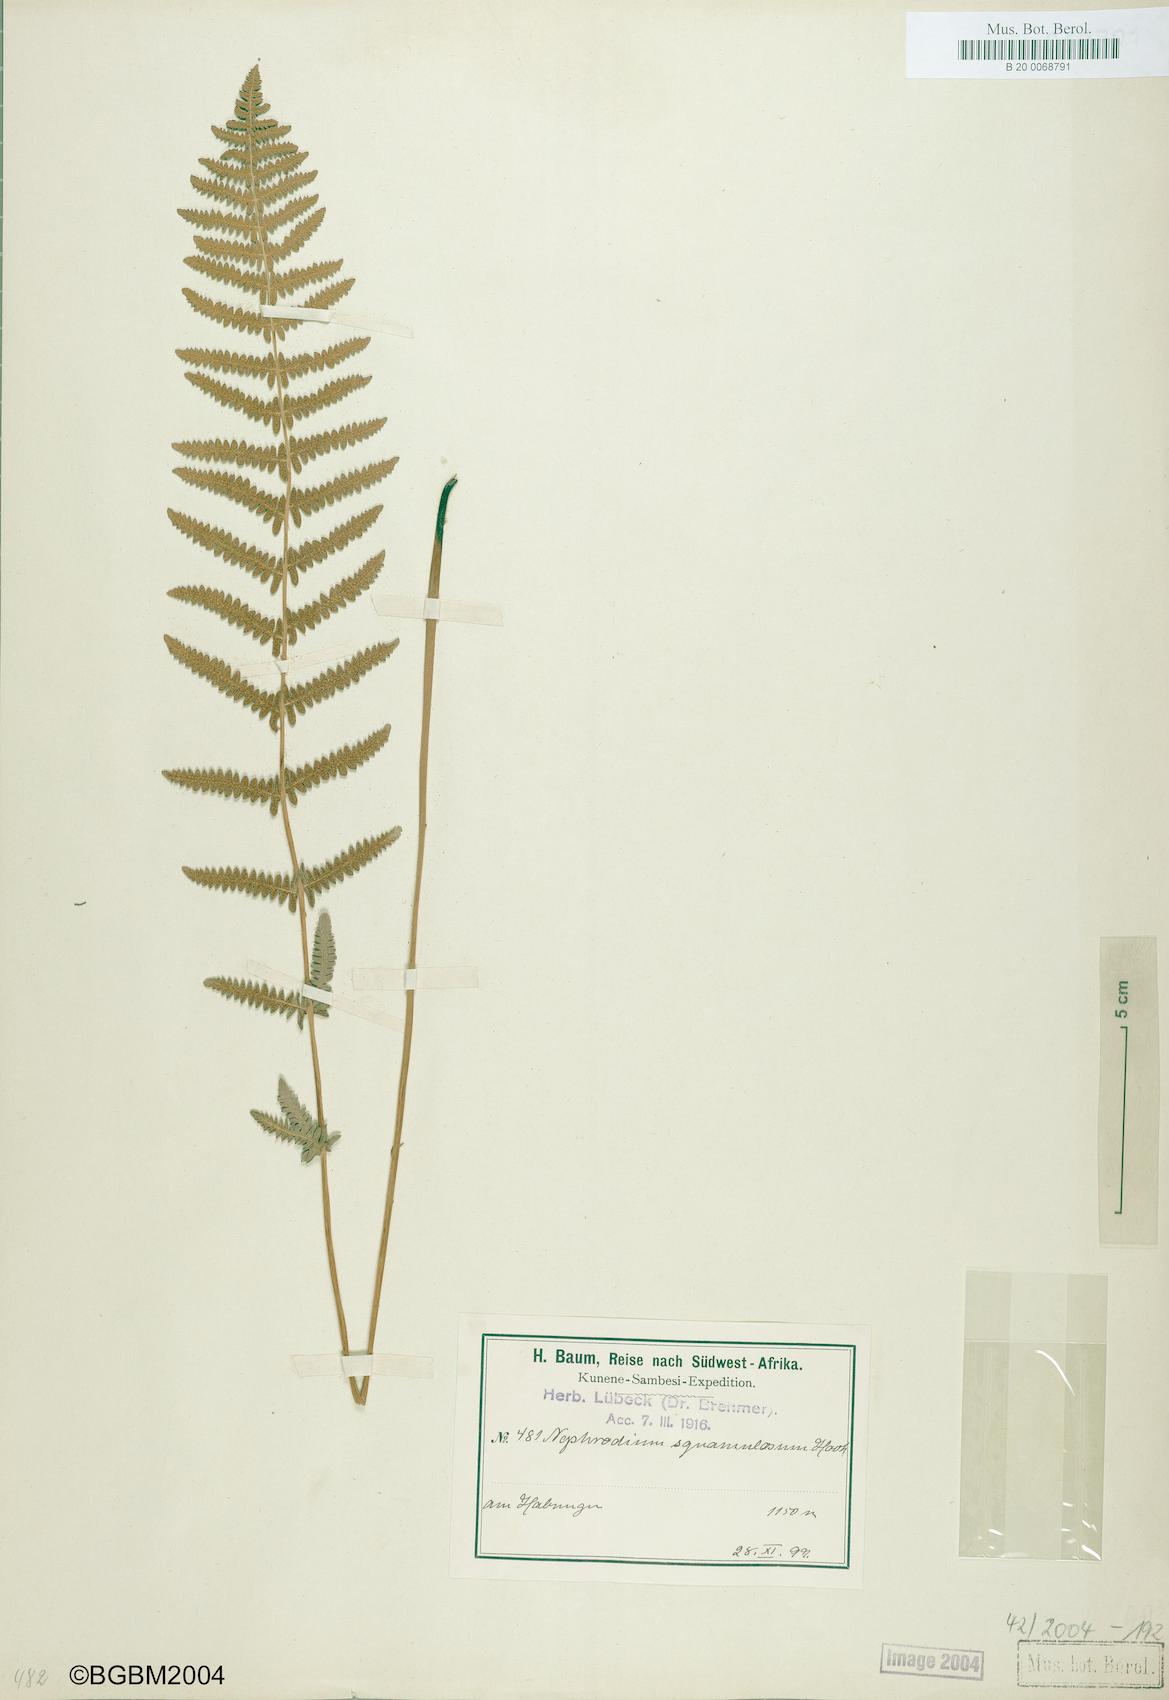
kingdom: Plantae
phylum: Tracheophyta
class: Polypodiopsida
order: Polypodiales
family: Thelypteridaceae
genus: Thelypteris
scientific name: Thelypteris palustris
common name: Marsh fern
